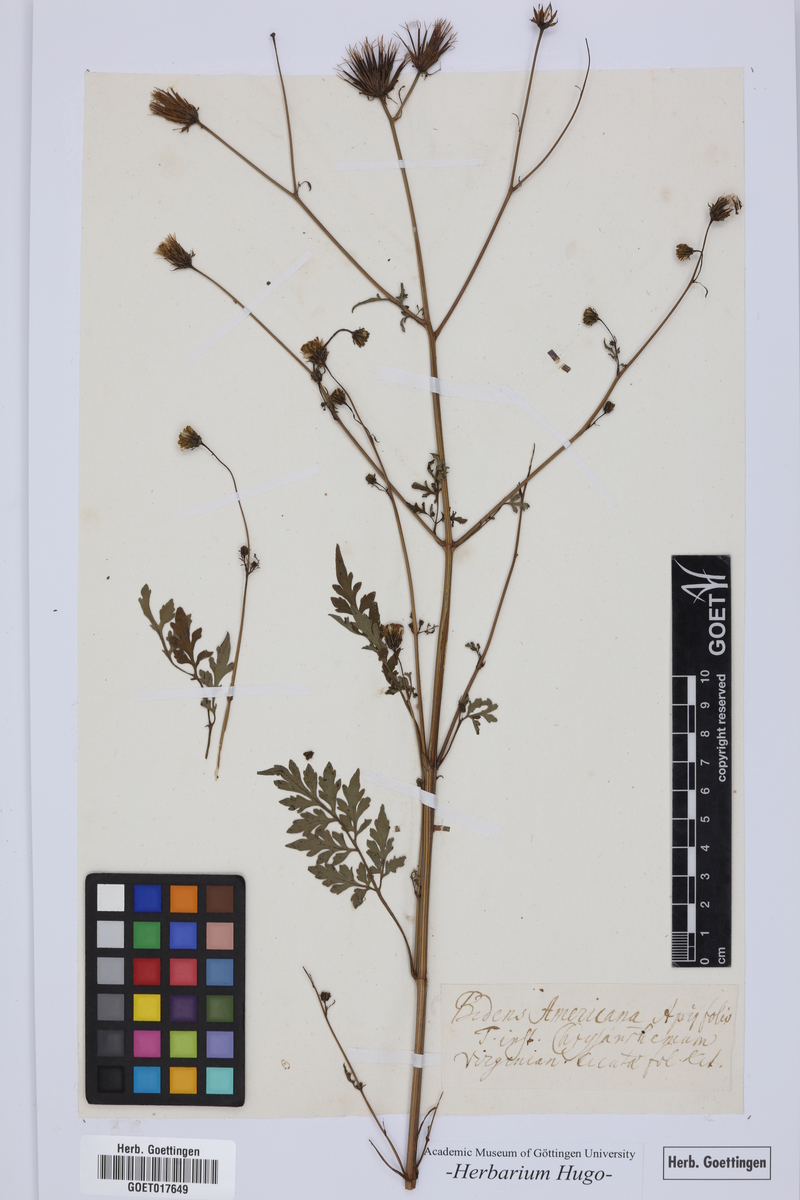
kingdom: Plantae
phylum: Tracheophyta
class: Magnoliopsida
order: Asterales
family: Asteraceae
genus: Bidens
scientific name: Bidens
